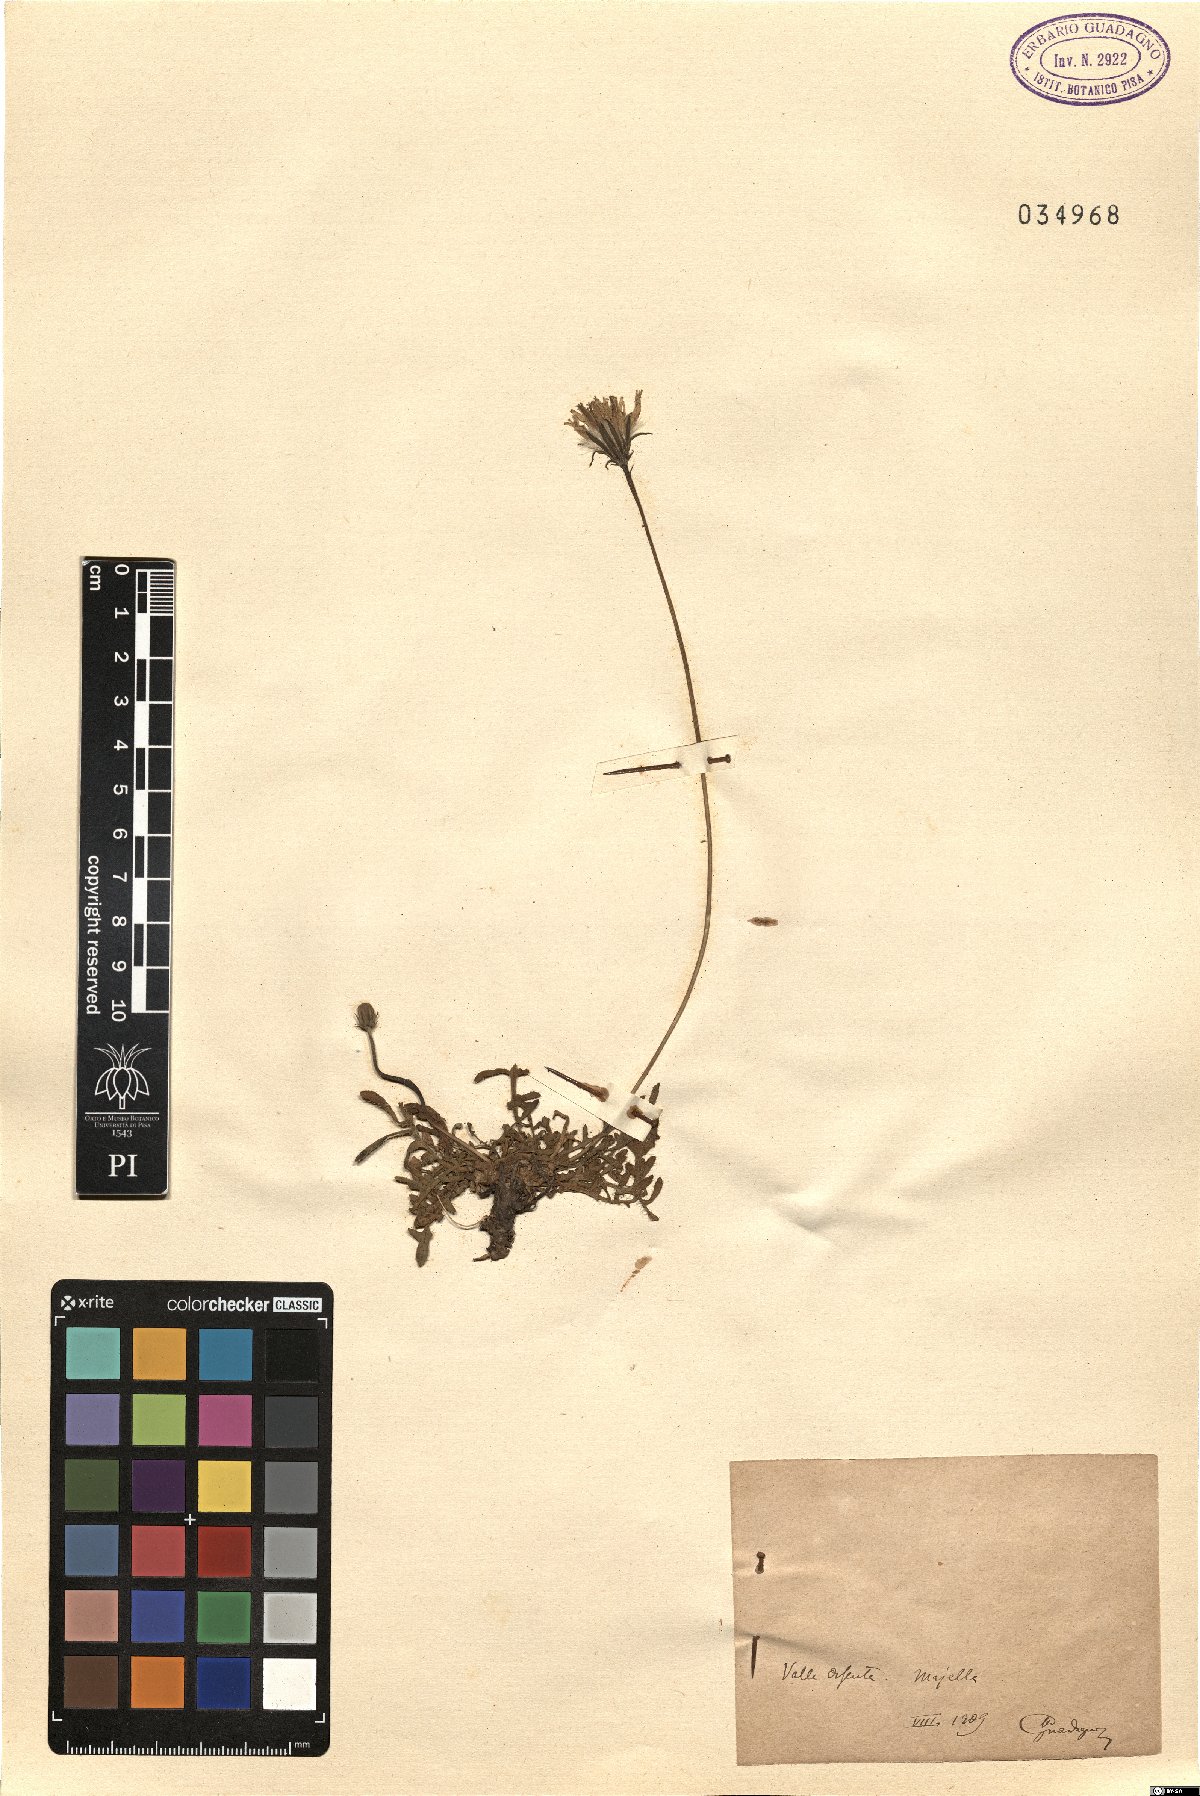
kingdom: Plantae
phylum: Tracheophyta
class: Magnoliopsida
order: Asterales
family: Asteraceae
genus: Leontodon
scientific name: Leontodon
